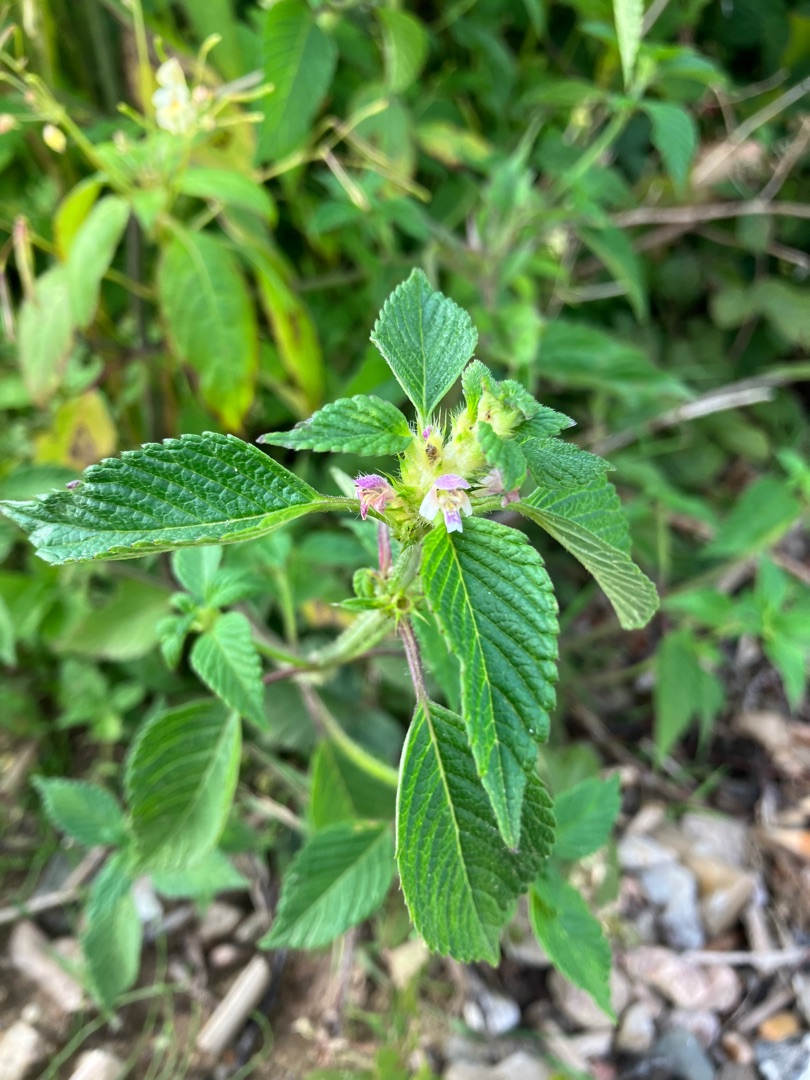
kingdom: Plantae
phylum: Tracheophyta
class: Magnoliopsida
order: Lamiales
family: Lamiaceae
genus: Galeopsis
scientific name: Galeopsis bifida
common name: Skov-hanekro
